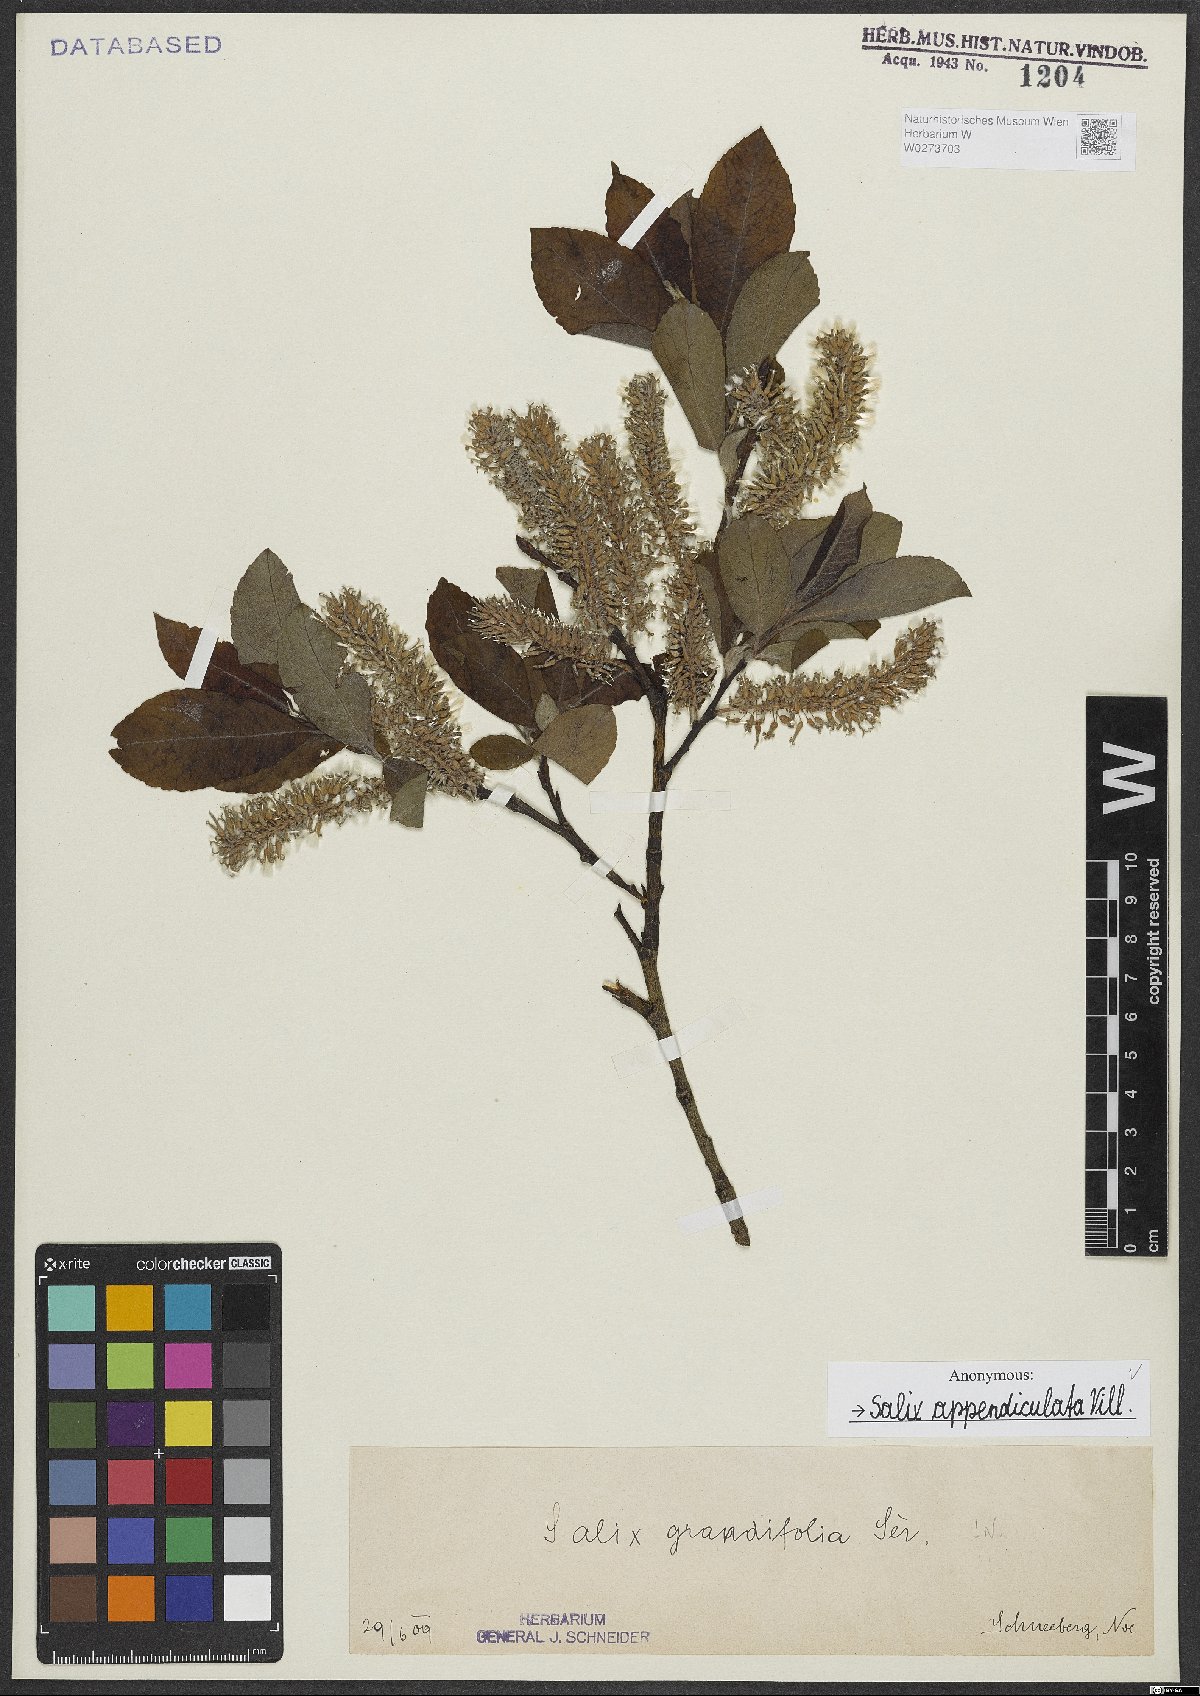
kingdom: Plantae
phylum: Tracheophyta
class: Magnoliopsida
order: Malpighiales
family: Salicaceae
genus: Salix
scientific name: Salix appendiculata
